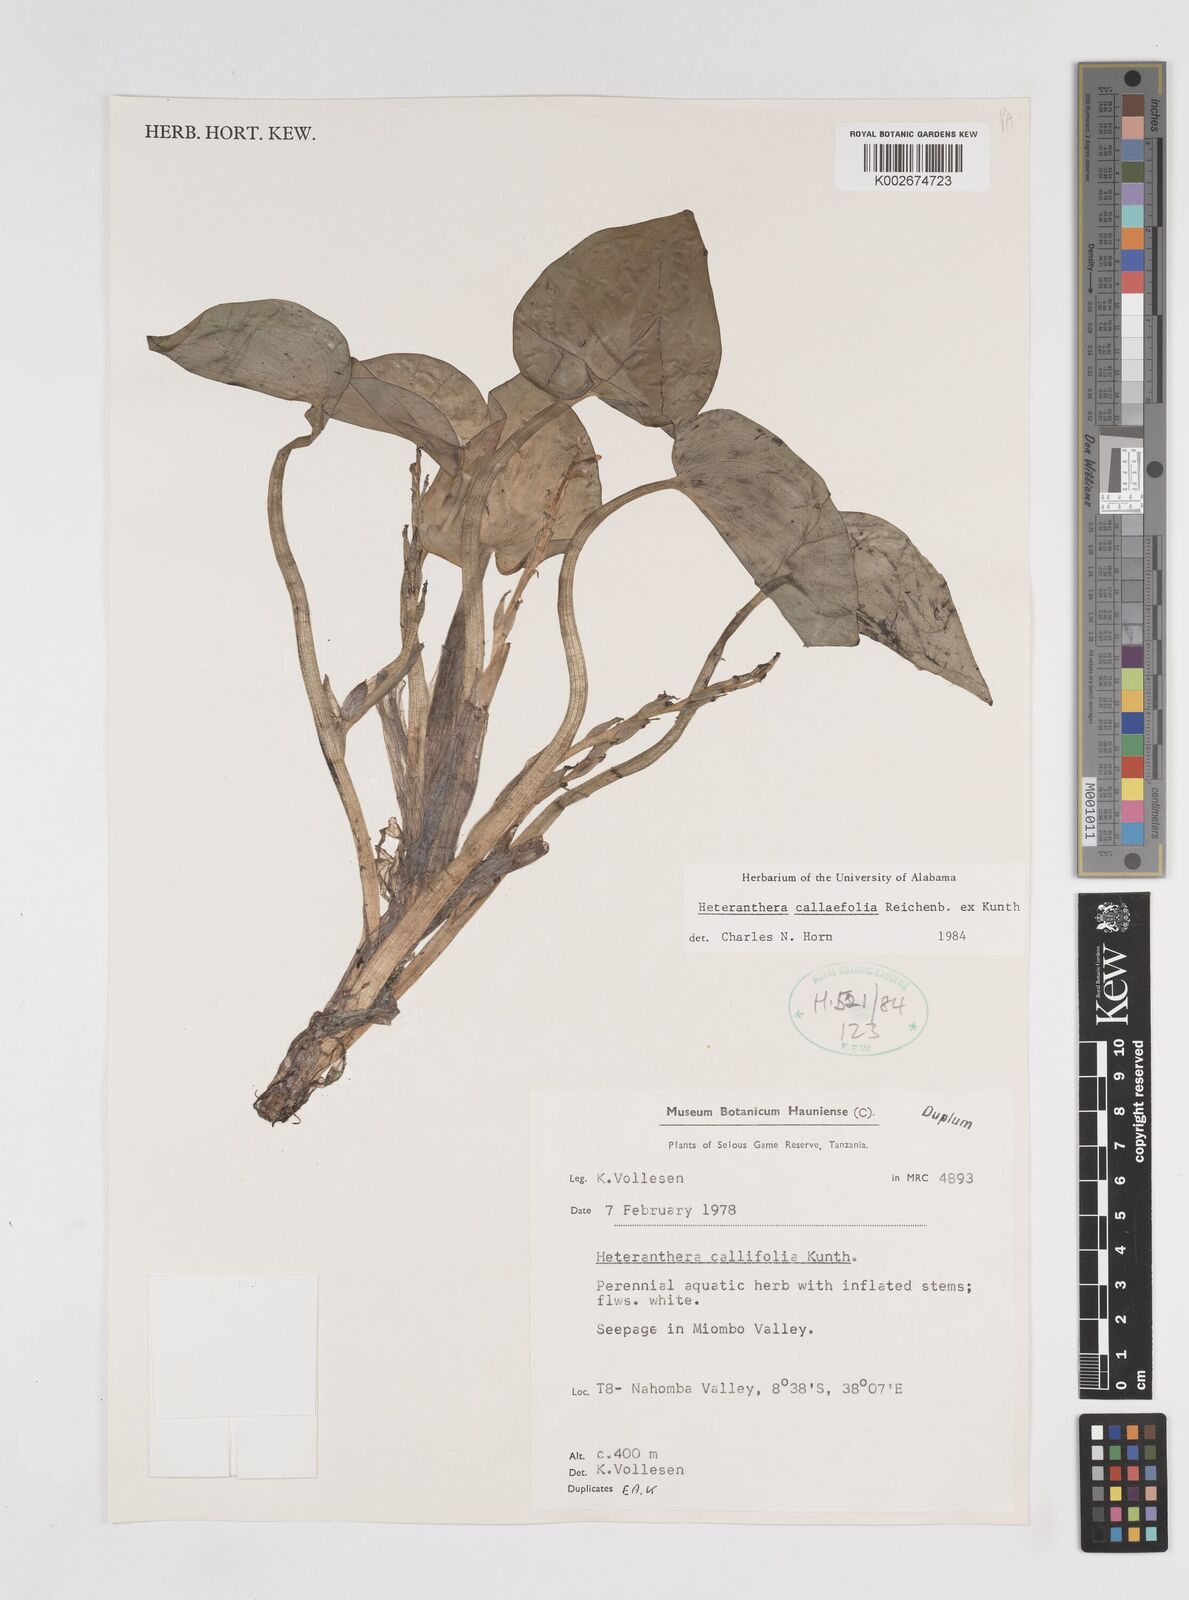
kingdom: Plantae
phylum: Tracheophyta
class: Liliopsida
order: Commelinales
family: Pontederiaceae
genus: Heteranthera
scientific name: Heteranthera callifolia
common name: Mud plantain
